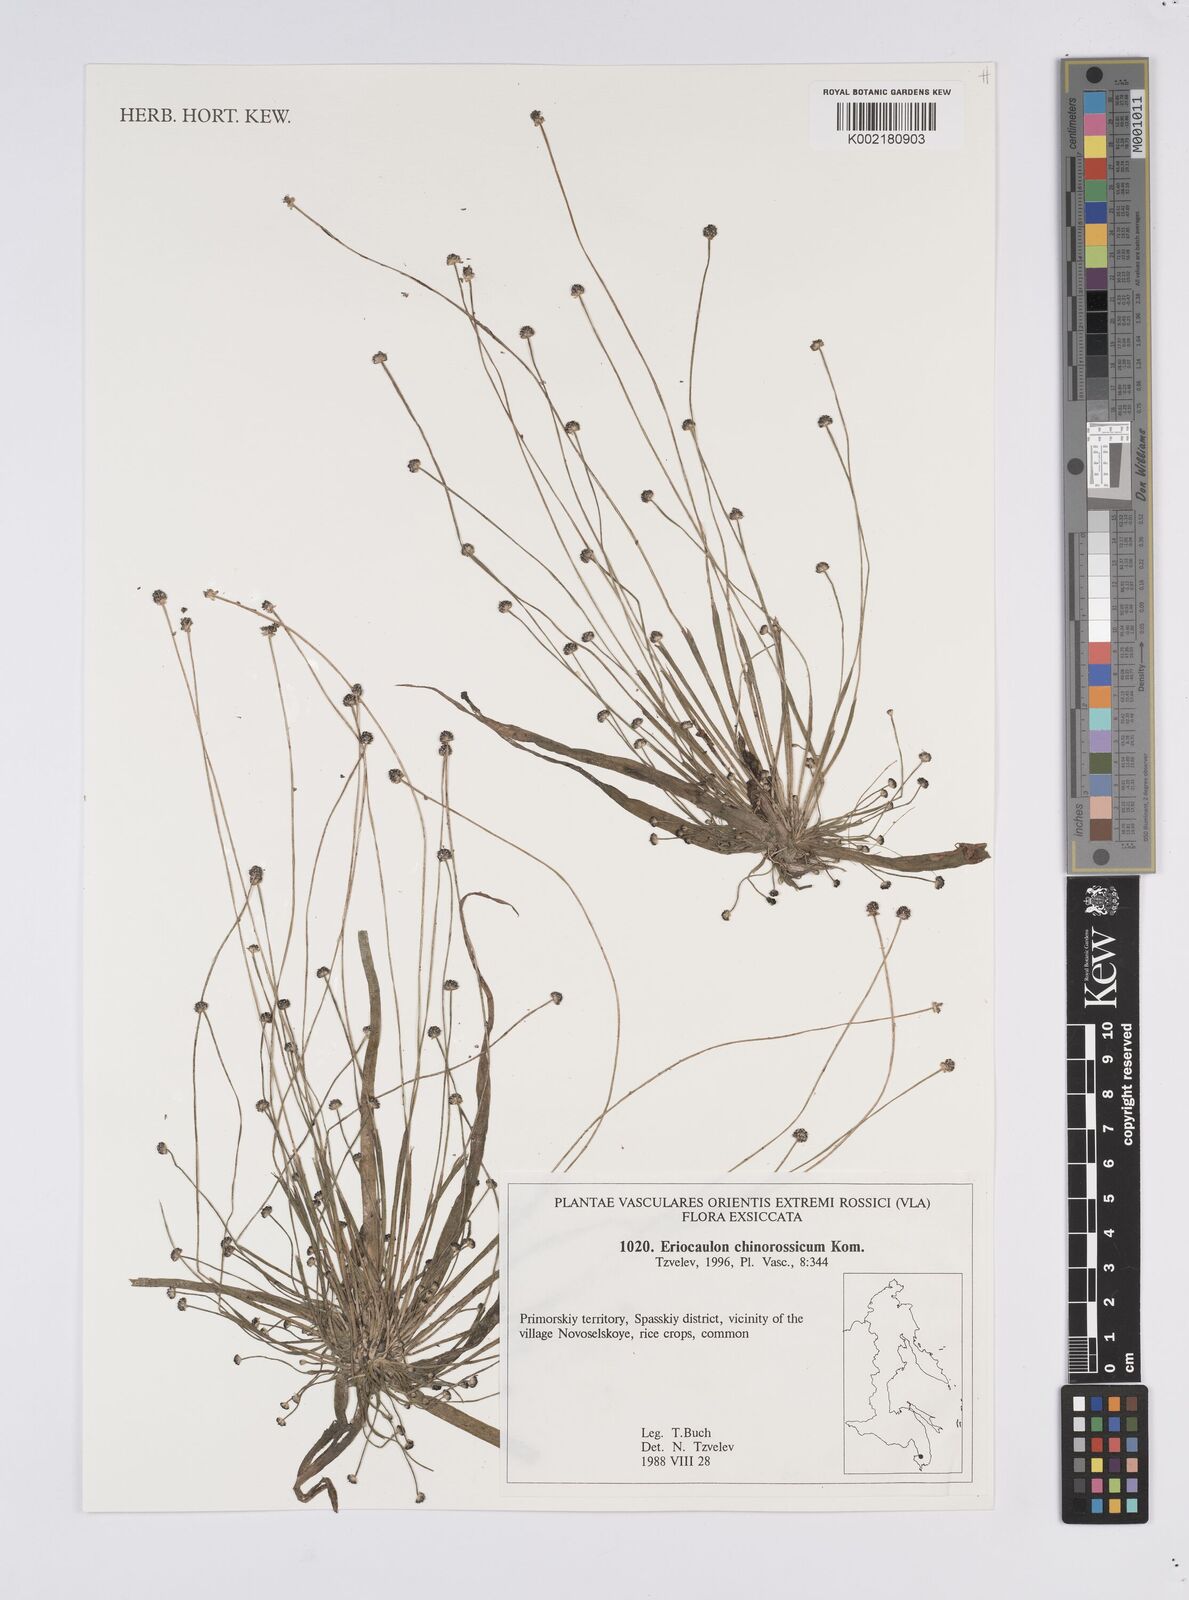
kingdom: Plantae
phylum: Tracheophyta
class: Liliopsida
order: Poales
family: Eriocaulaceae
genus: Eriocaulon
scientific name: Eriocaulon chinorossicum
